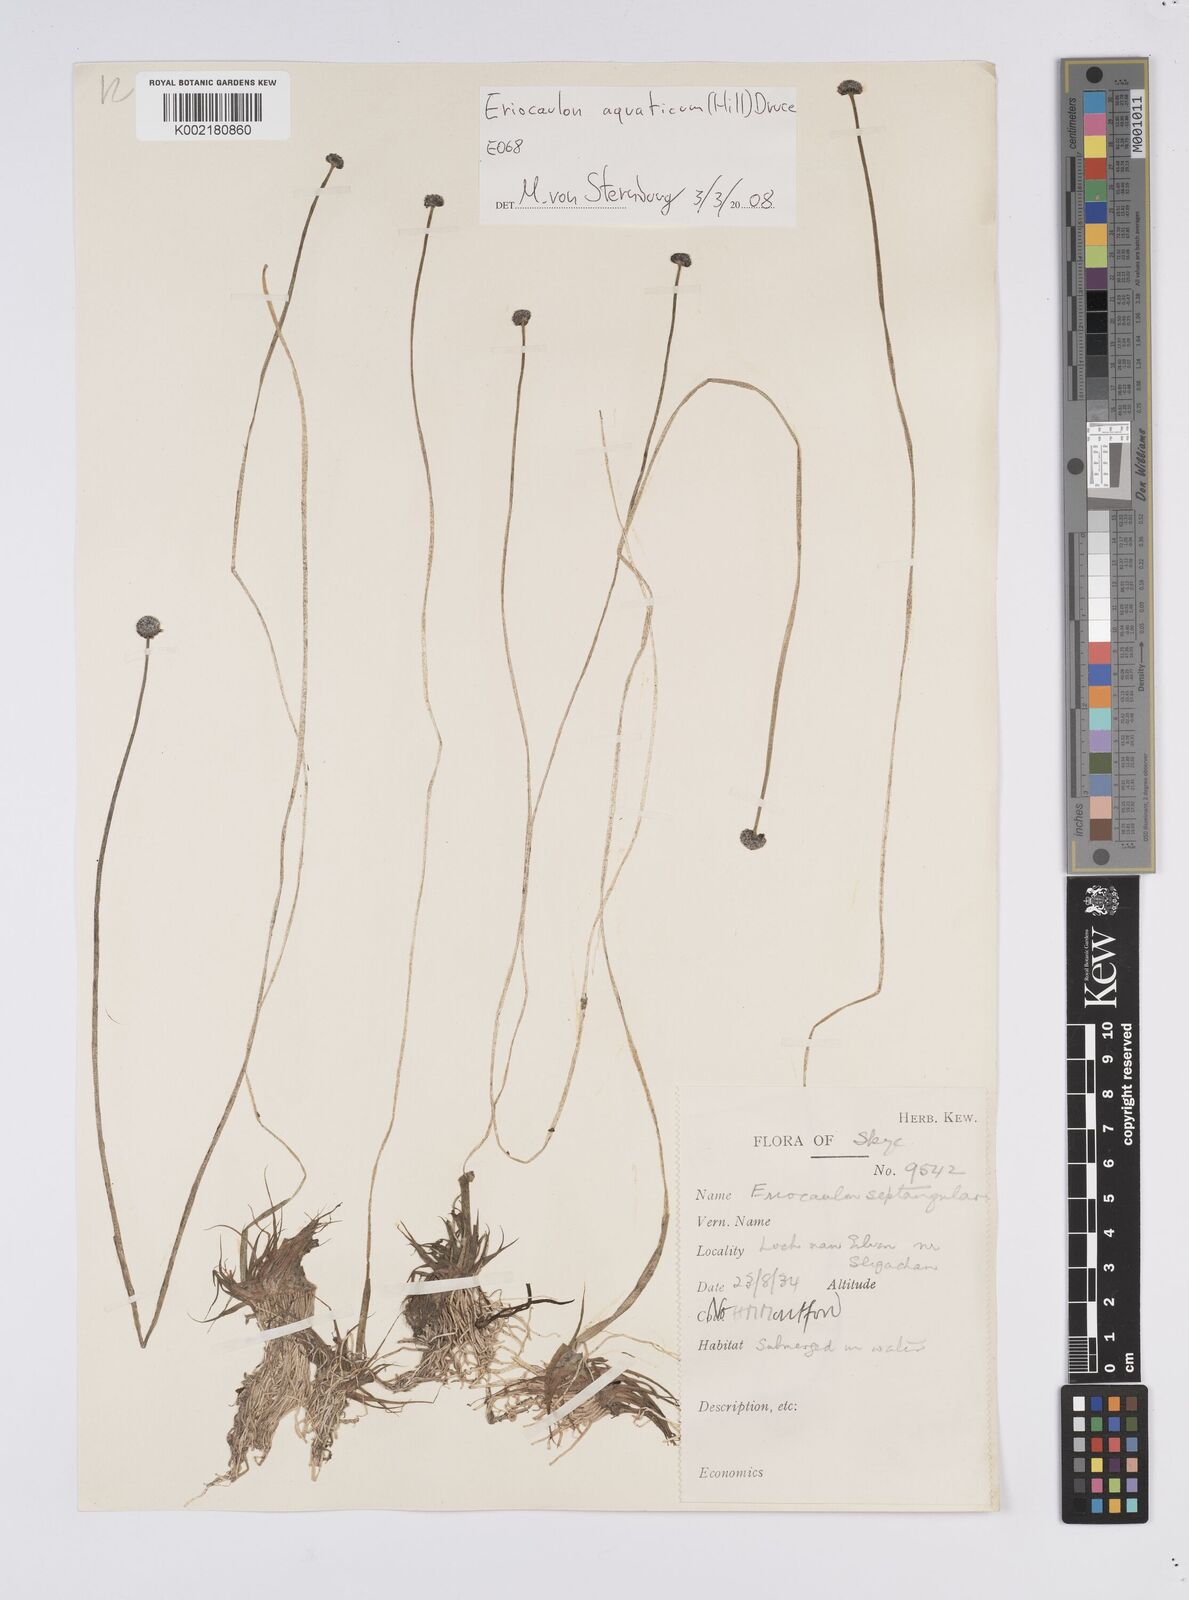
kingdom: Plantae
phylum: Tracheophyta
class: Liliopsida
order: Poales
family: Eriocaulaceae
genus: Eriocaulon
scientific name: Eriocaulon aquaticum
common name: Pipewort
